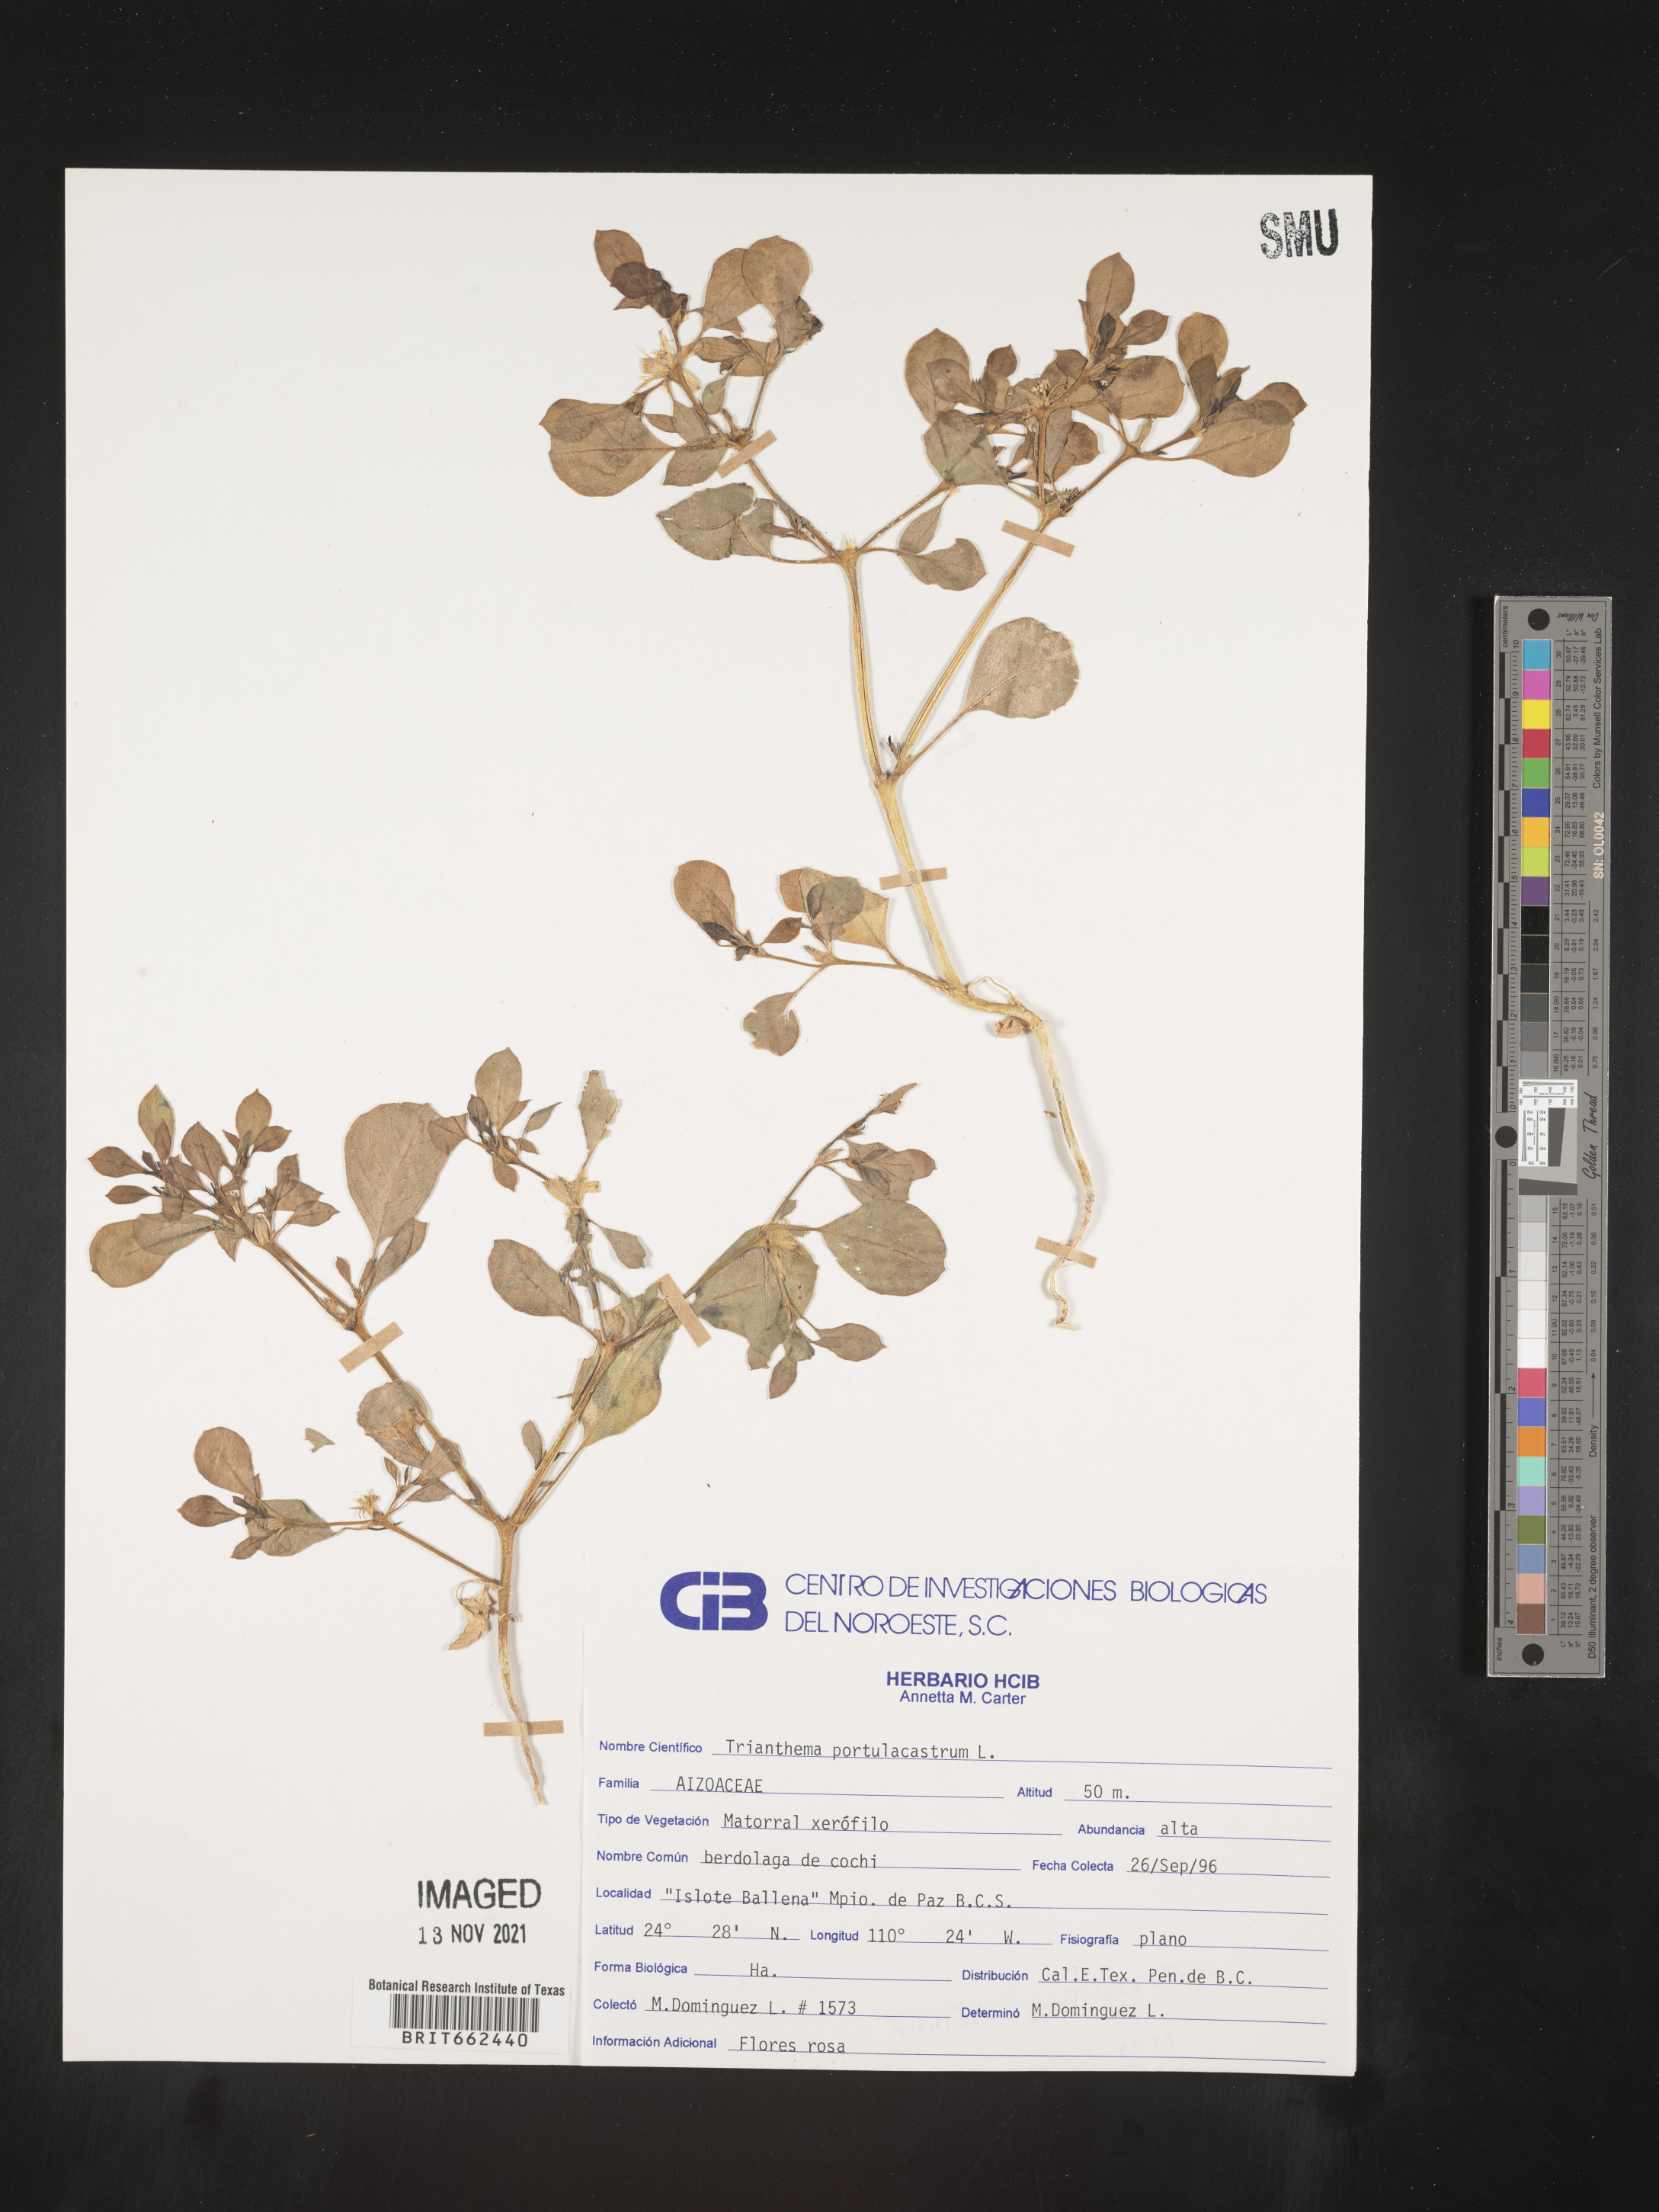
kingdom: Plantae
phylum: Tracheophyta
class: Magnoliopsida
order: Caryophyllales
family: Aizoaceae
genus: Trianthema
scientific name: Trianthema
